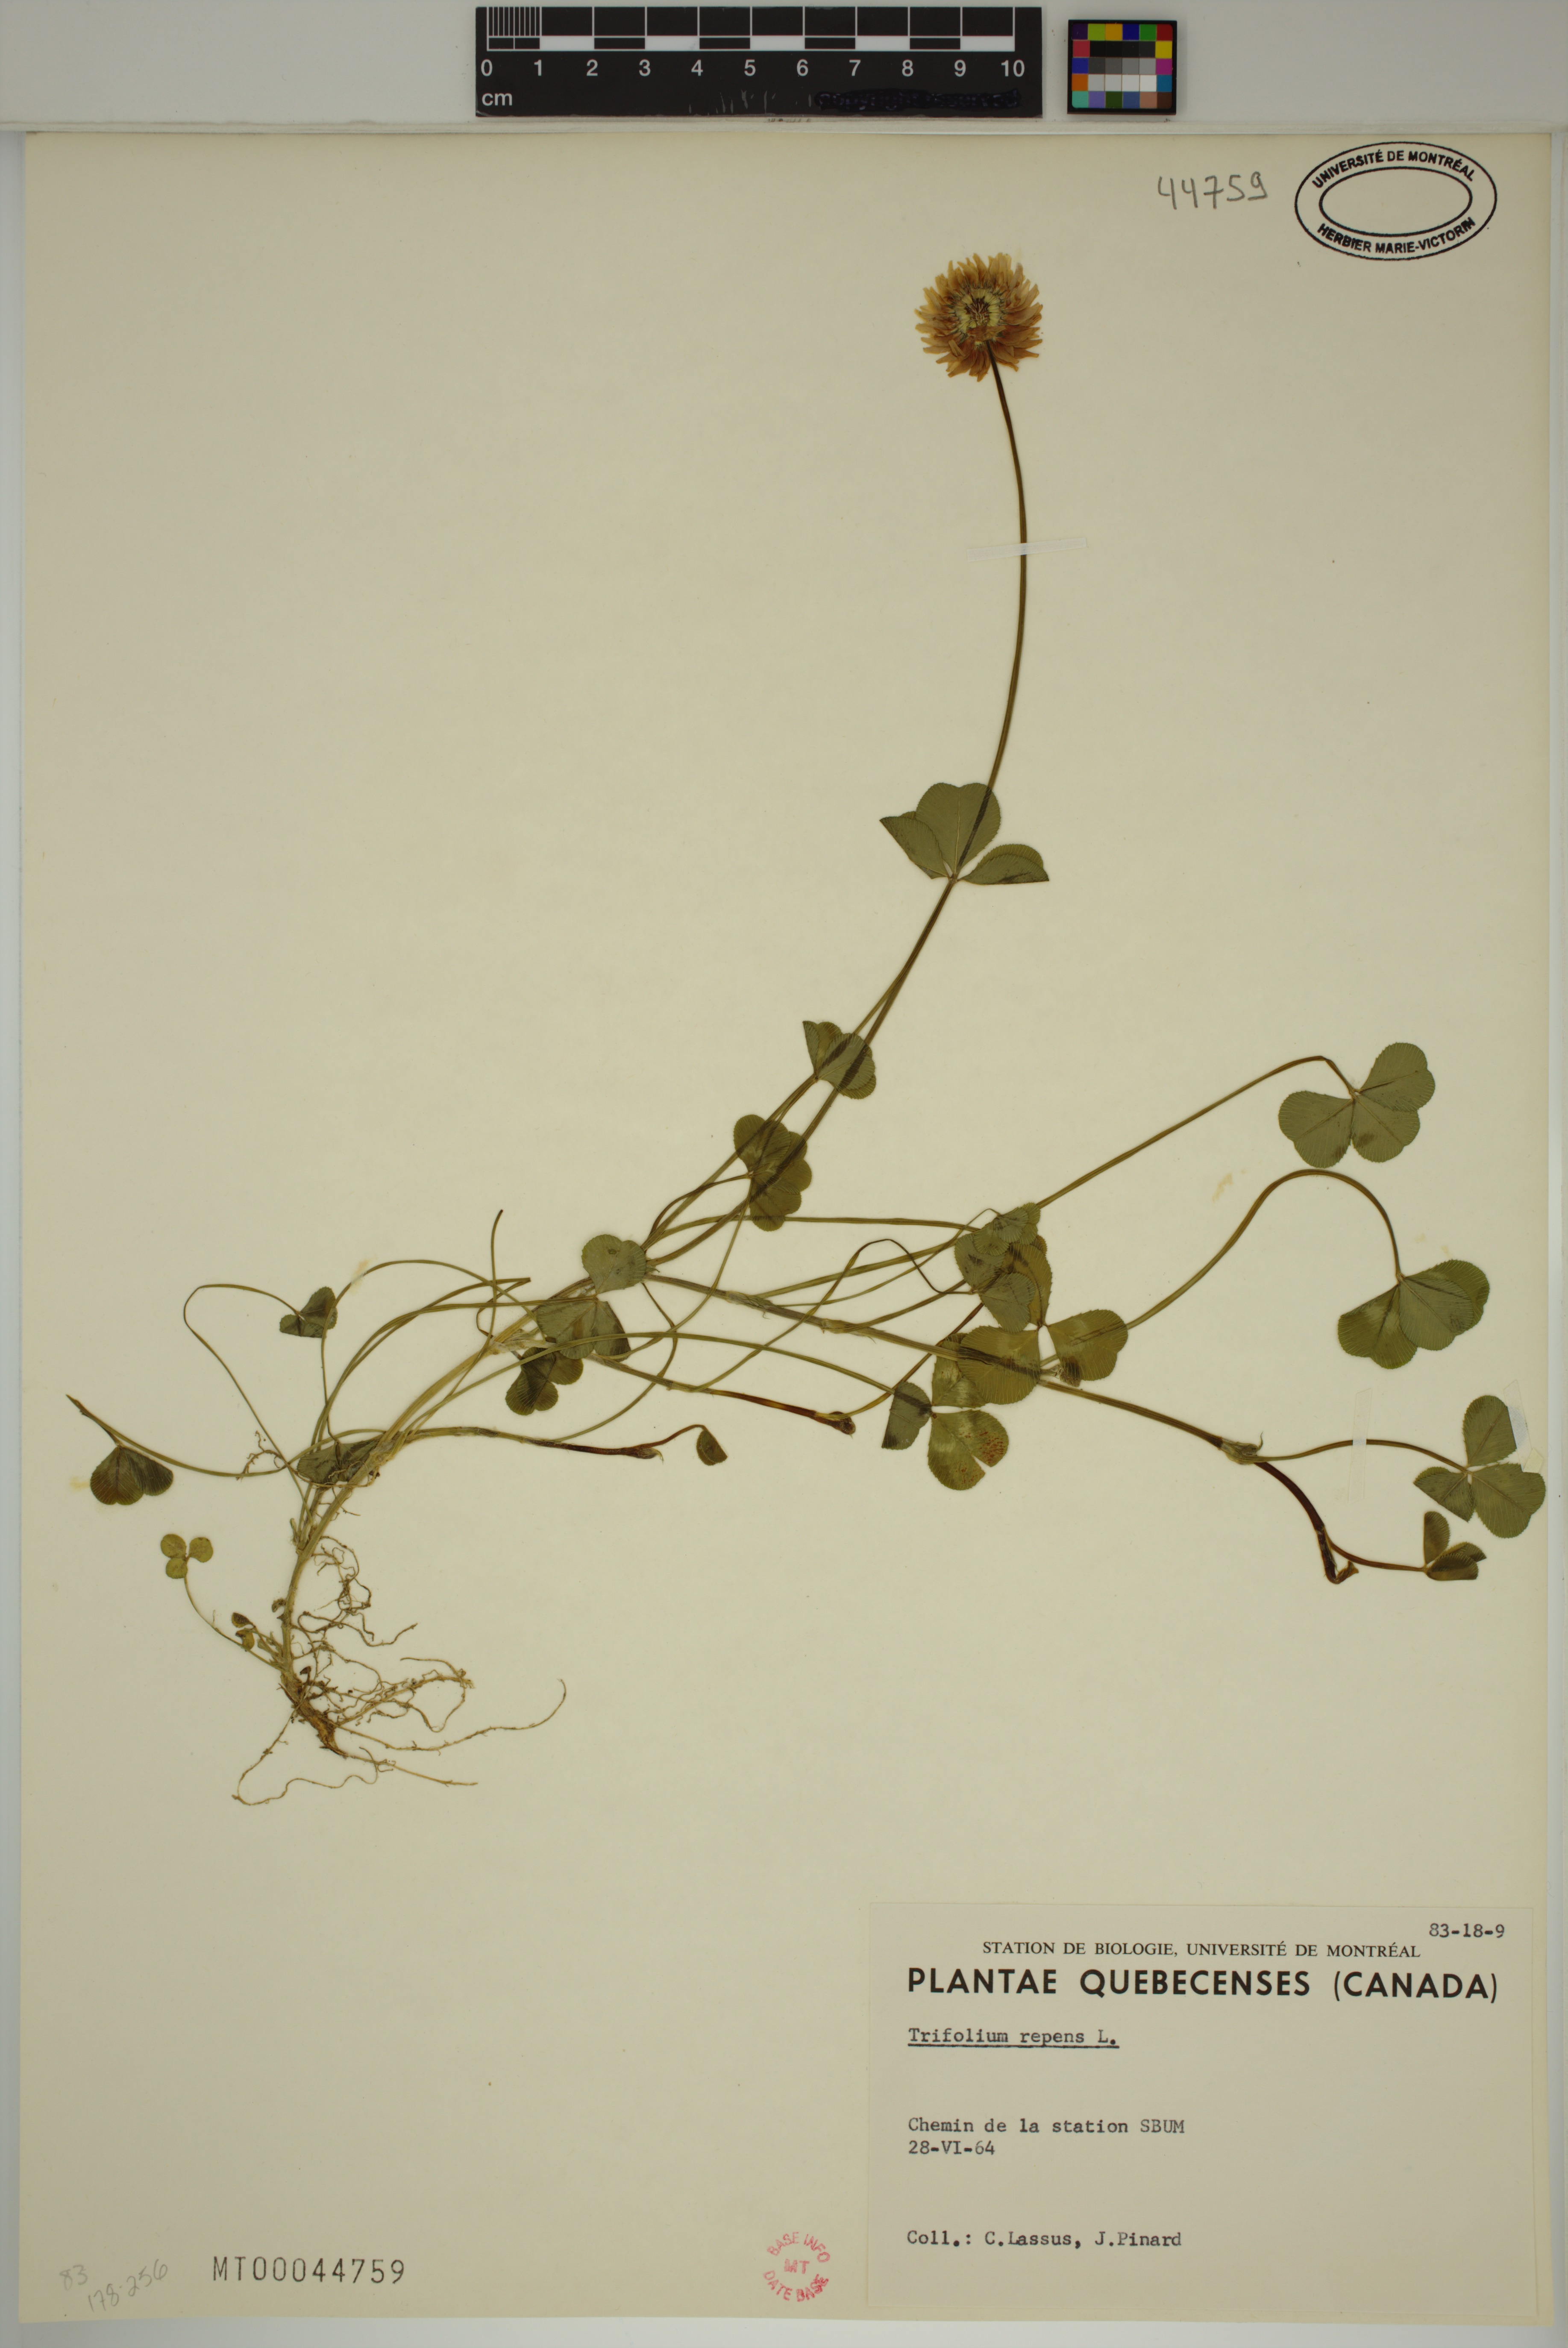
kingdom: Plantae
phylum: Tracheophyta
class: Magnoliopsida
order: Fabales
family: Fabaceae
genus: Trifolium
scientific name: Trifolium repens
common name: White clover
